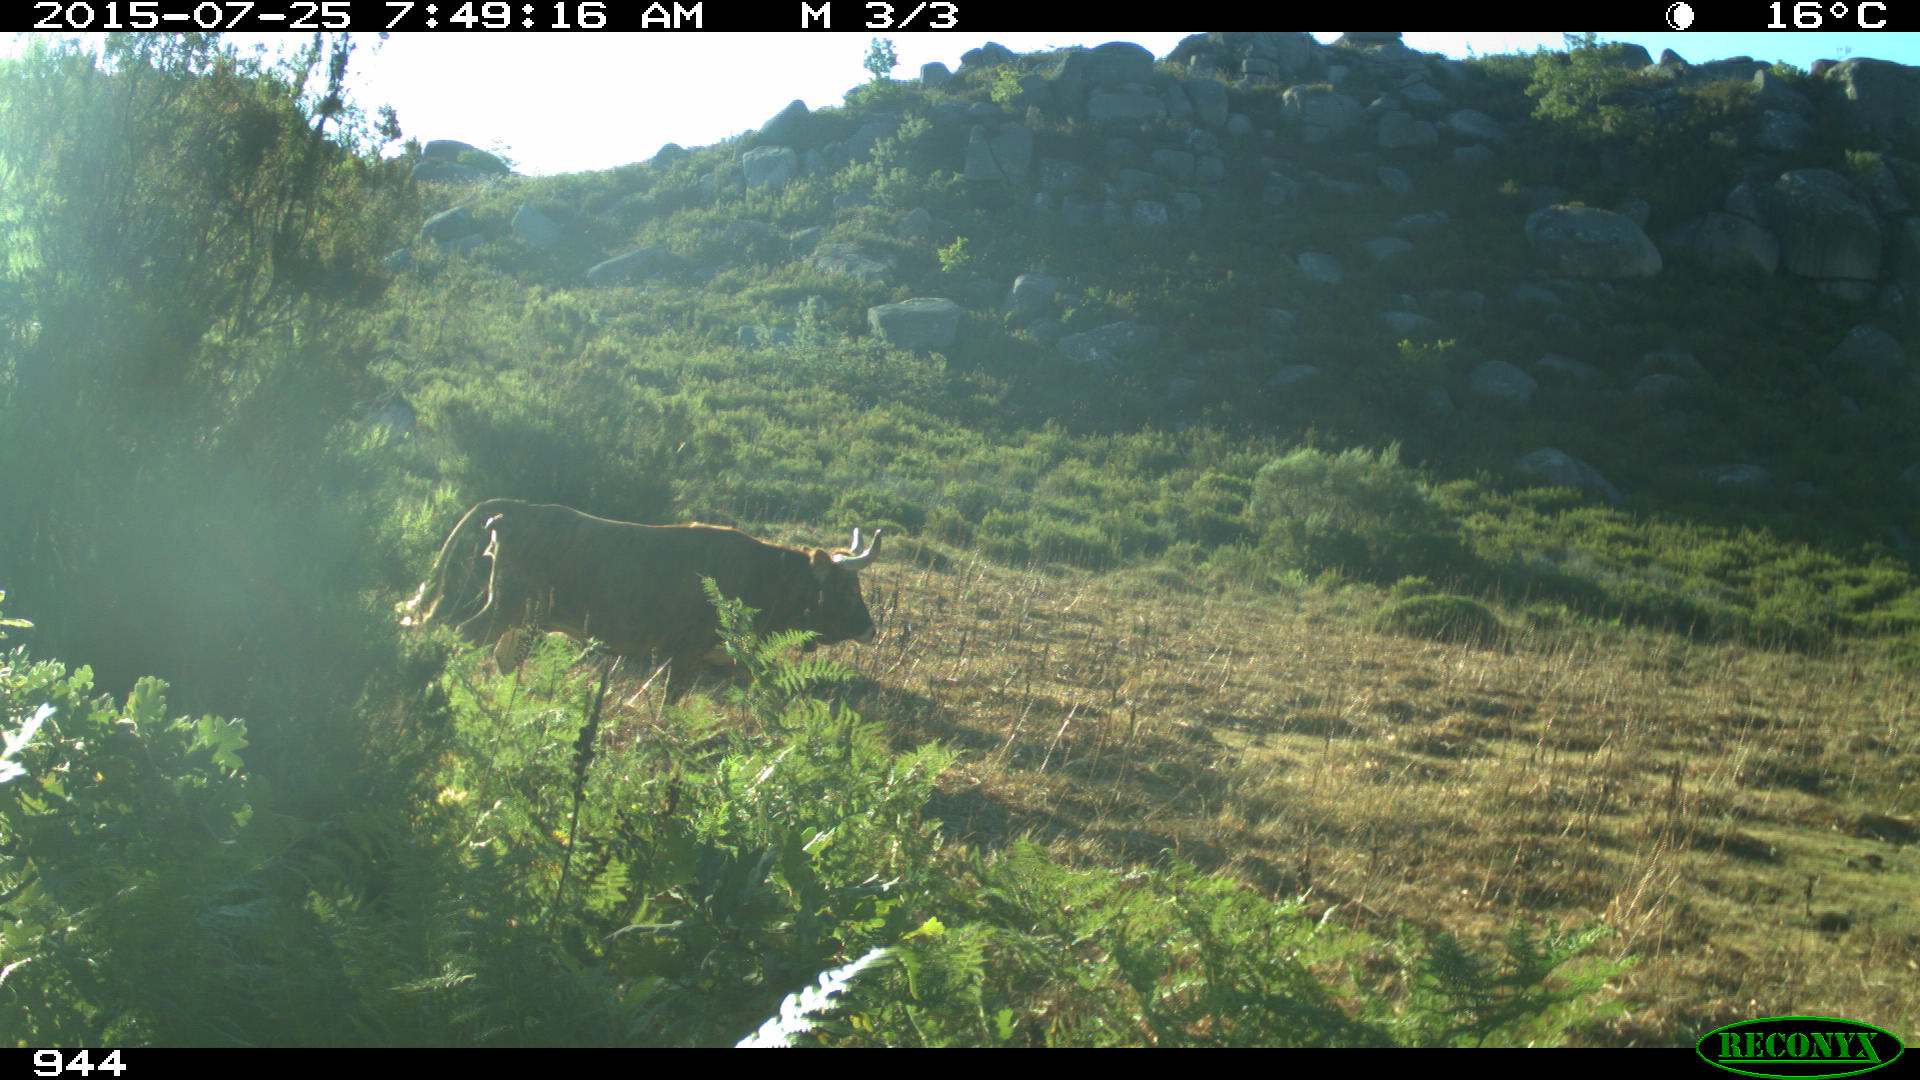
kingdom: Animalia
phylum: Chordata
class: Mammalia
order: Artiodactyla
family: Bovidae
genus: Bos
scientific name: Bos taurus
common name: Domesticated cattle
